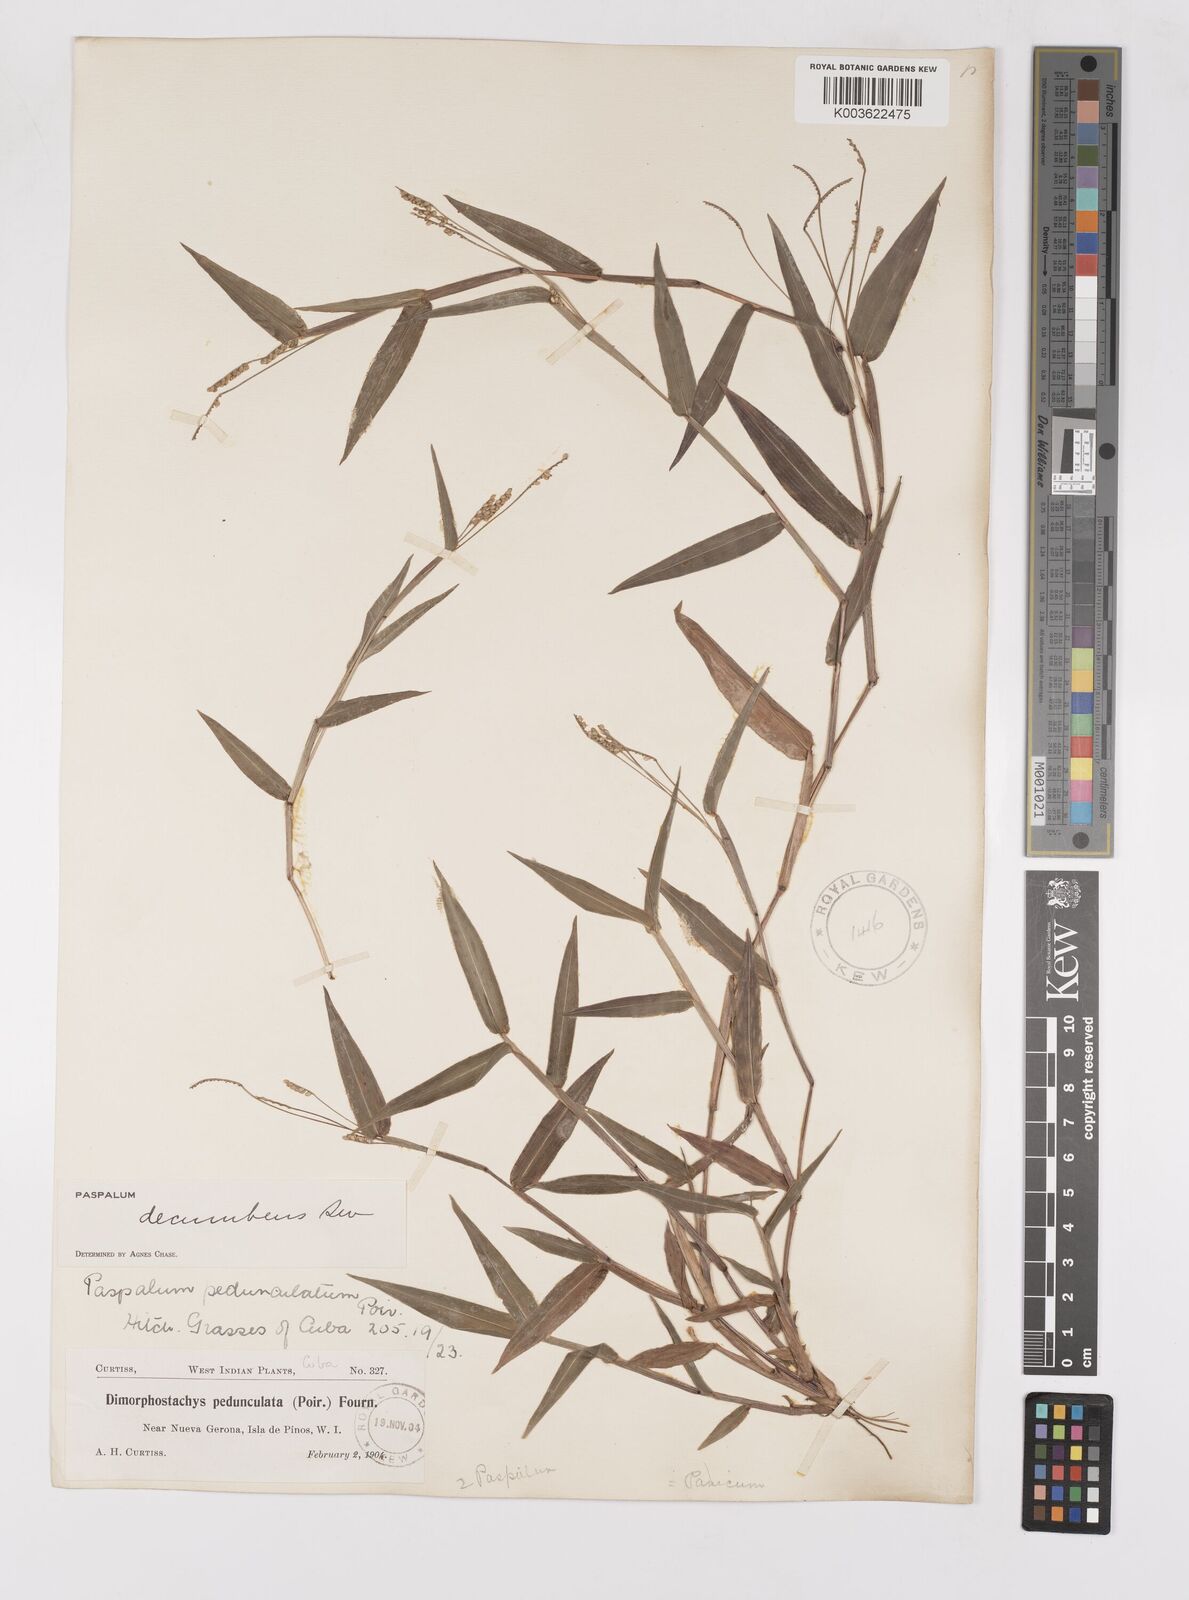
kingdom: Plantae
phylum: Tracheophyta
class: Liliopsida
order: Poales
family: Poaceae
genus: Paspalum
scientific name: Paspalum decumbens
